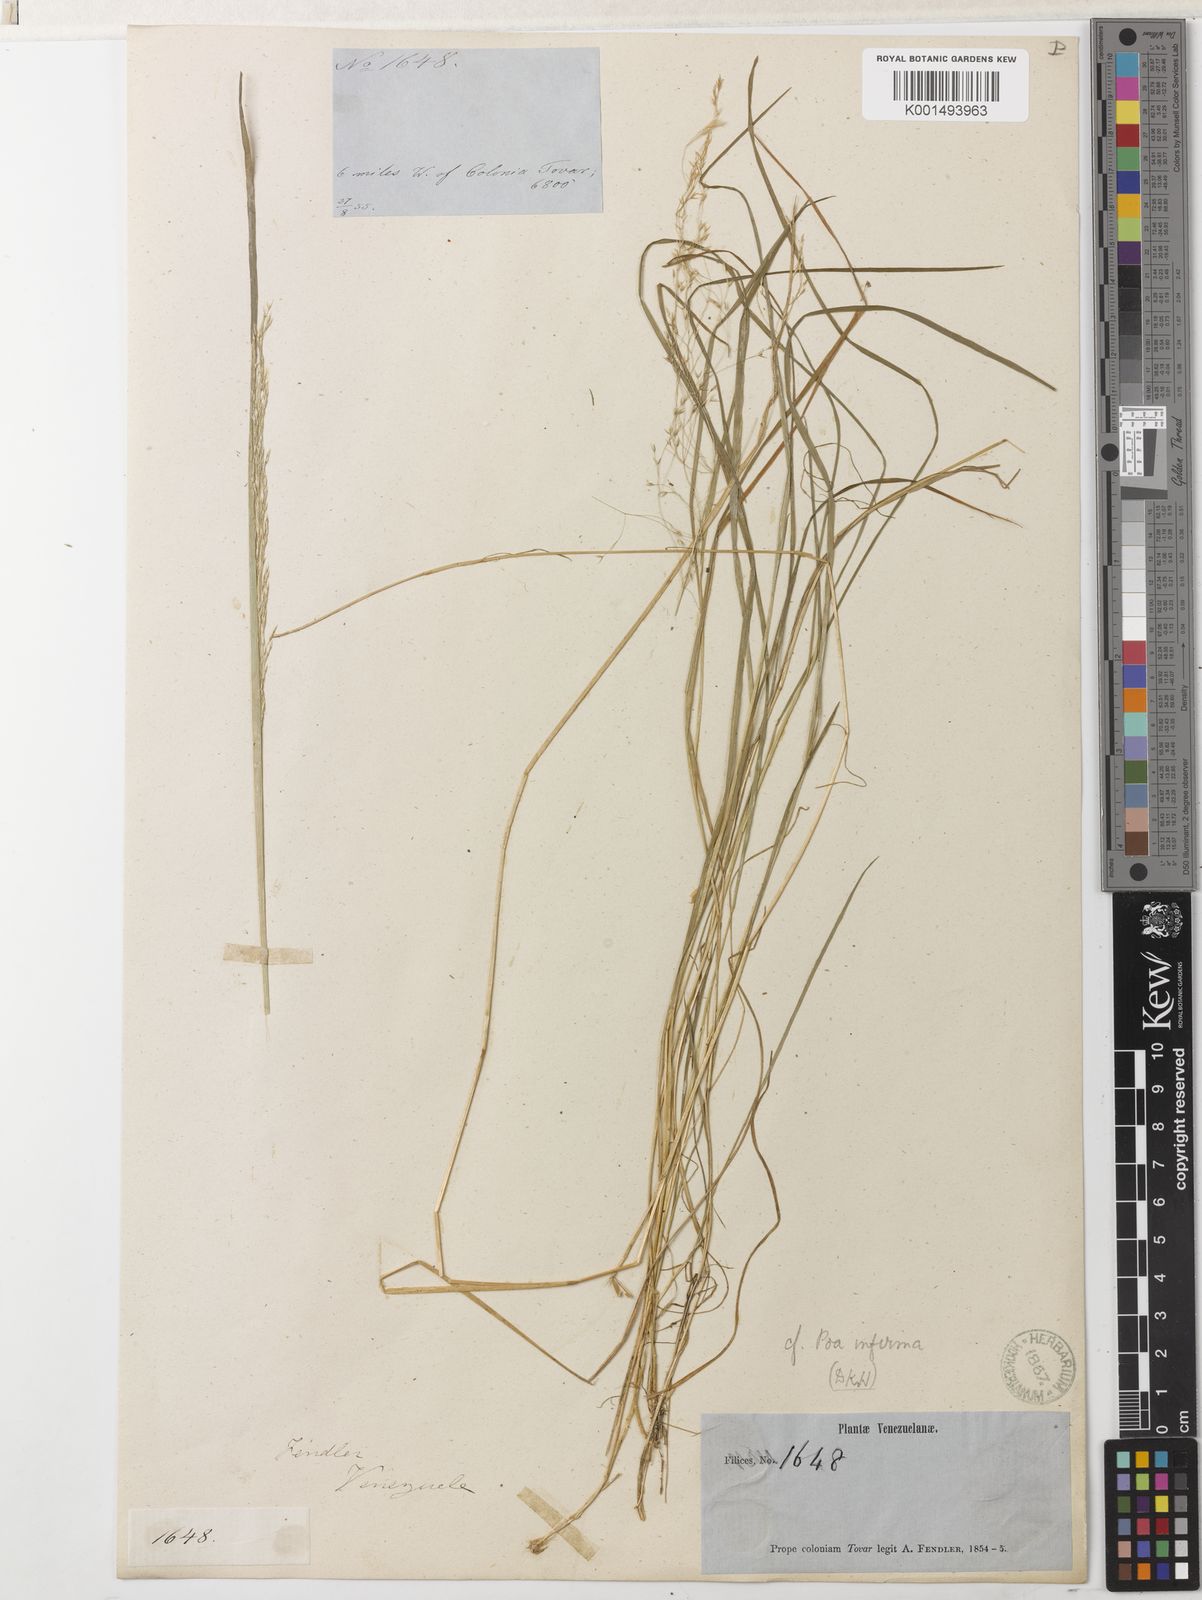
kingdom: Plantae
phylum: Tracheophyta
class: Liliopsida
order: Poales
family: Poaceae
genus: Agrostis
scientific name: Agrostis subrepens
